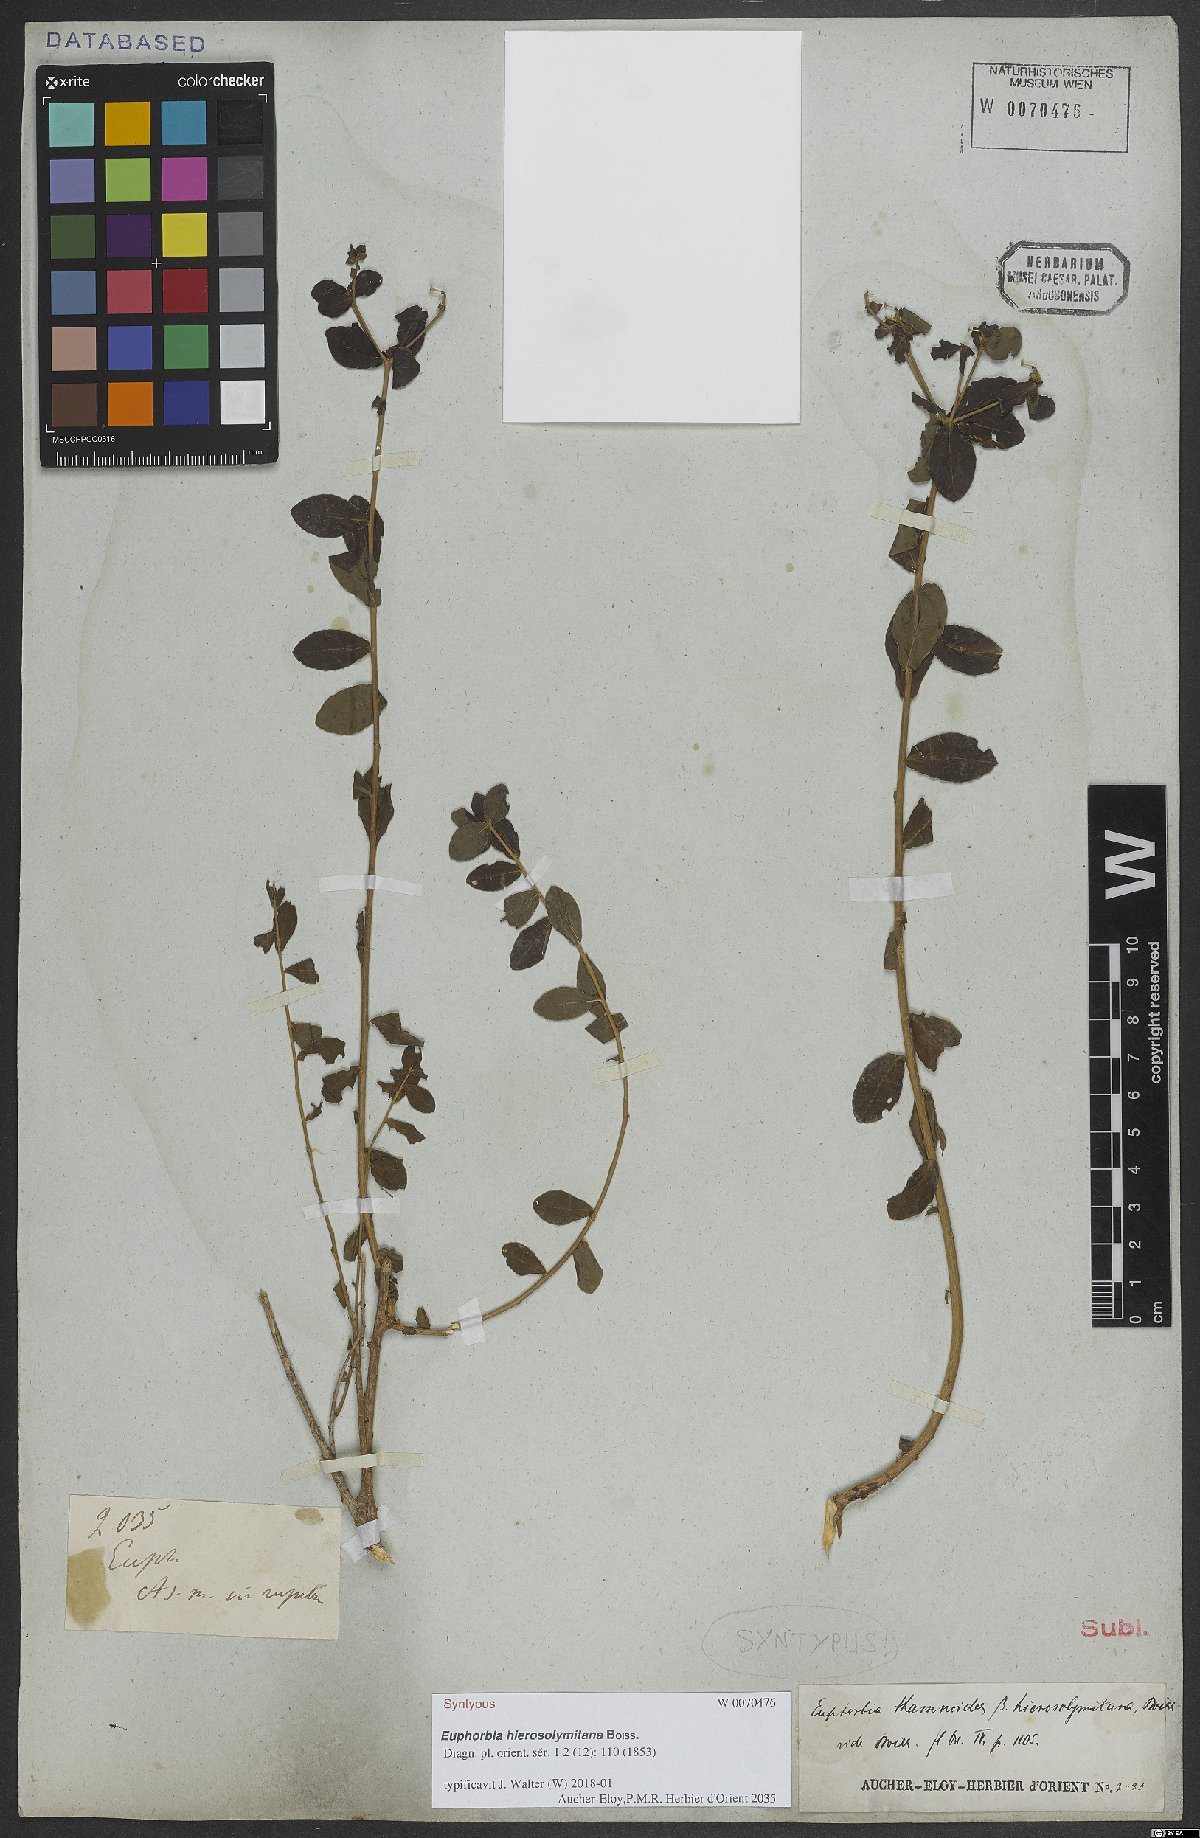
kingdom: Plantae
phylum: Tracheophyta
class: Magnoliopsida
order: Malpighiales
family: Euphorbiaceae
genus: Euphorbia
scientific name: Euphorbia hierosolymitana
